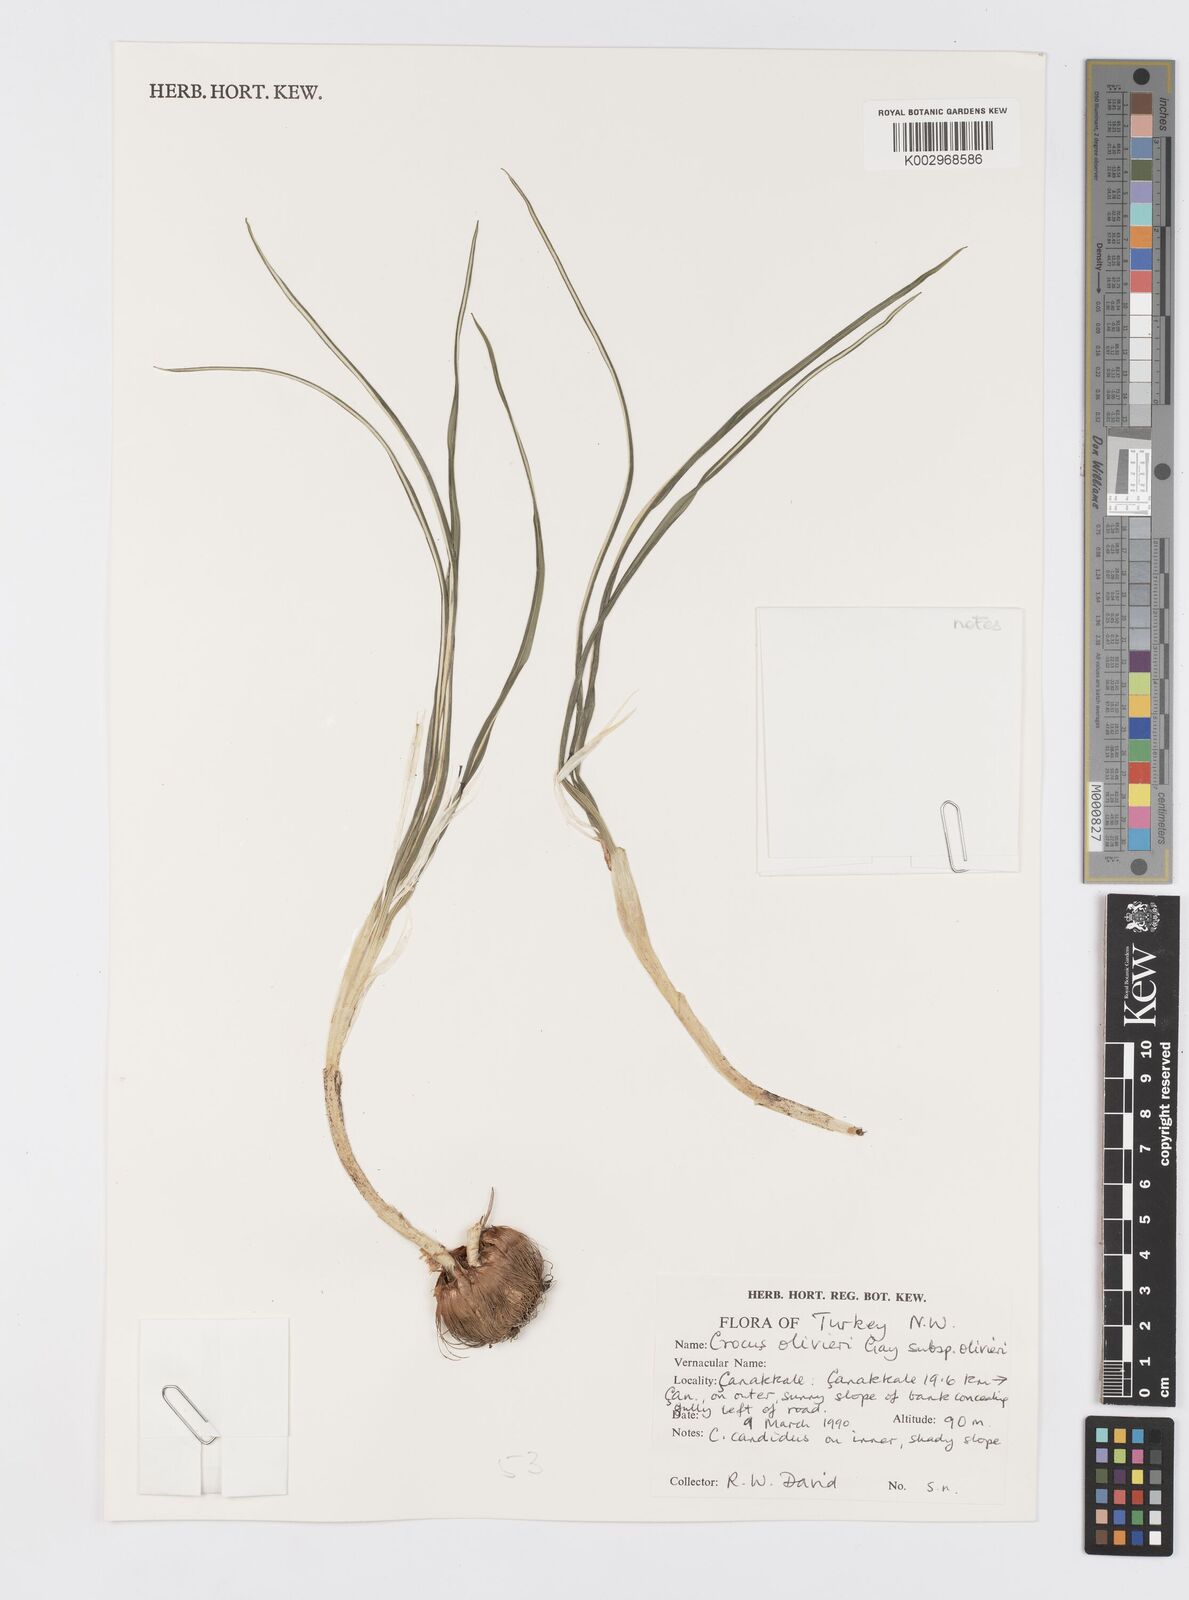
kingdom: Plantae
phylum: Tracheophyta
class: Liliopsida
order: Asparagales
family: Iridaceae
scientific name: Iridaceae
